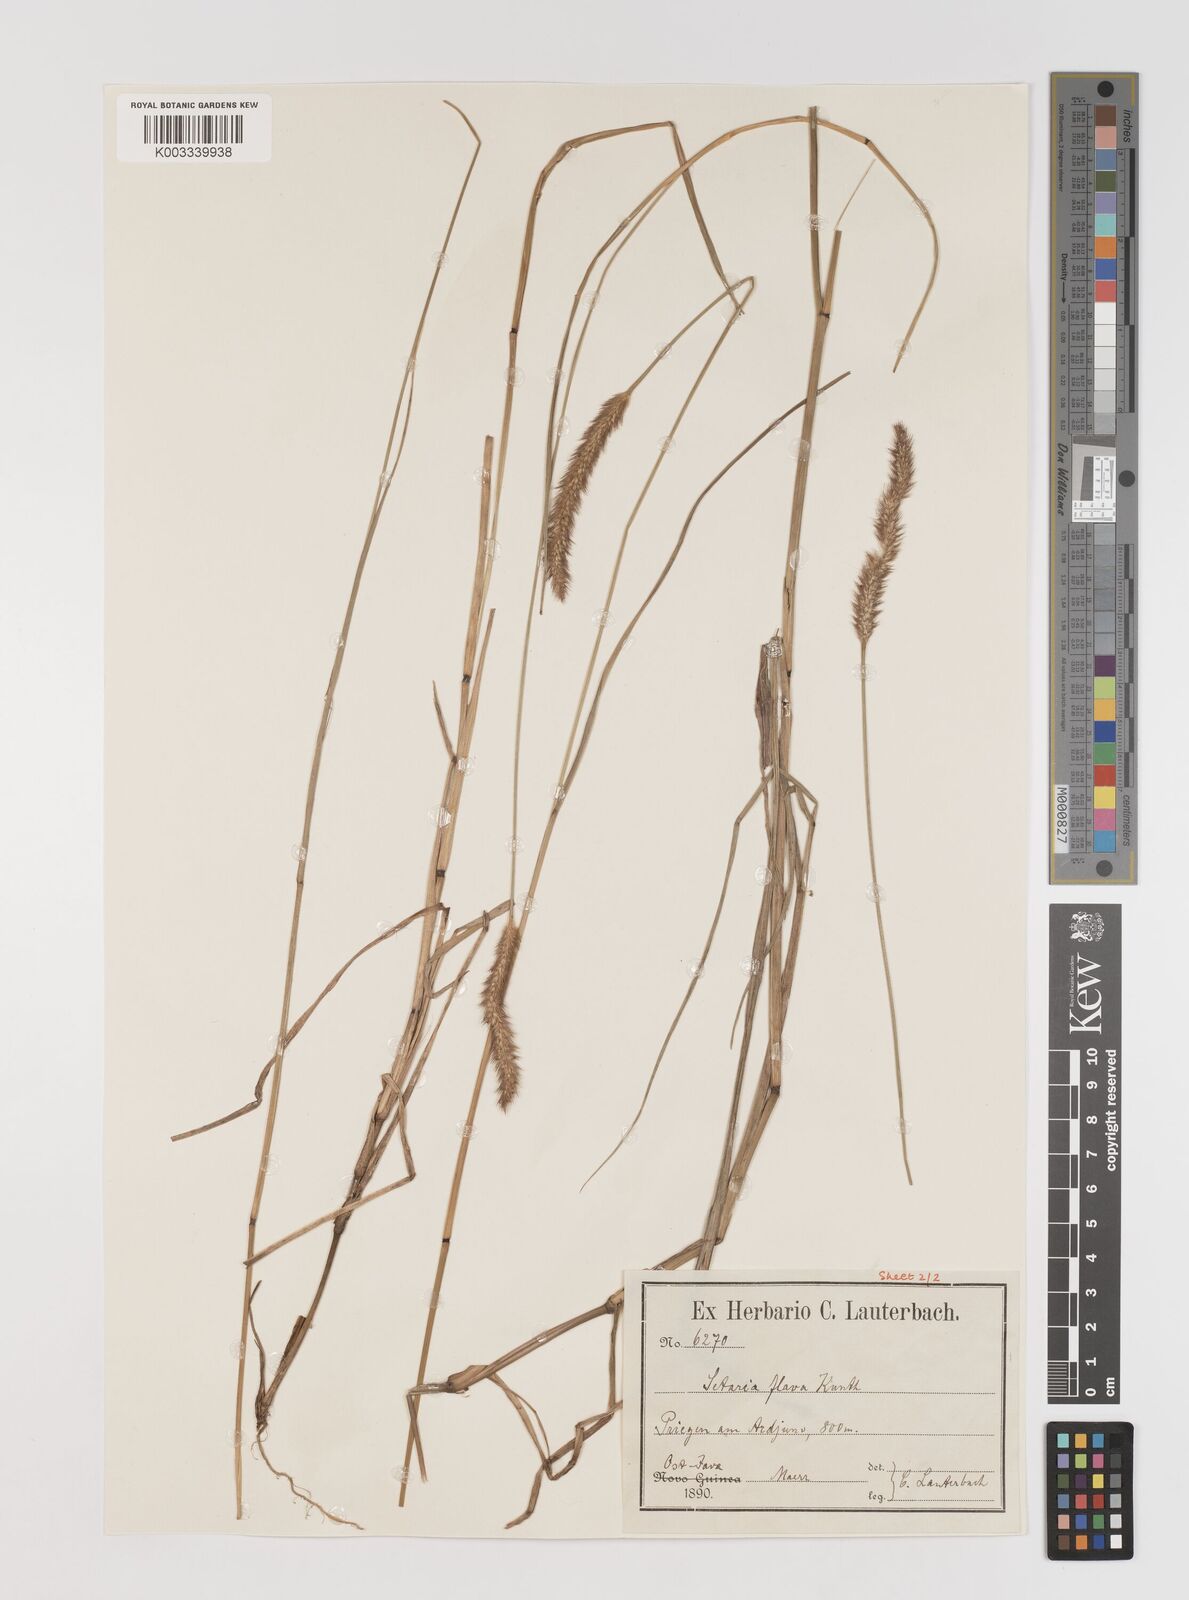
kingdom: Plantae
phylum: Tracheophyta
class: Liliopsida
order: Poales
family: Poaceae
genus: Setaria
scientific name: Setaria parviflora
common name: Knotroot bristle-grass
